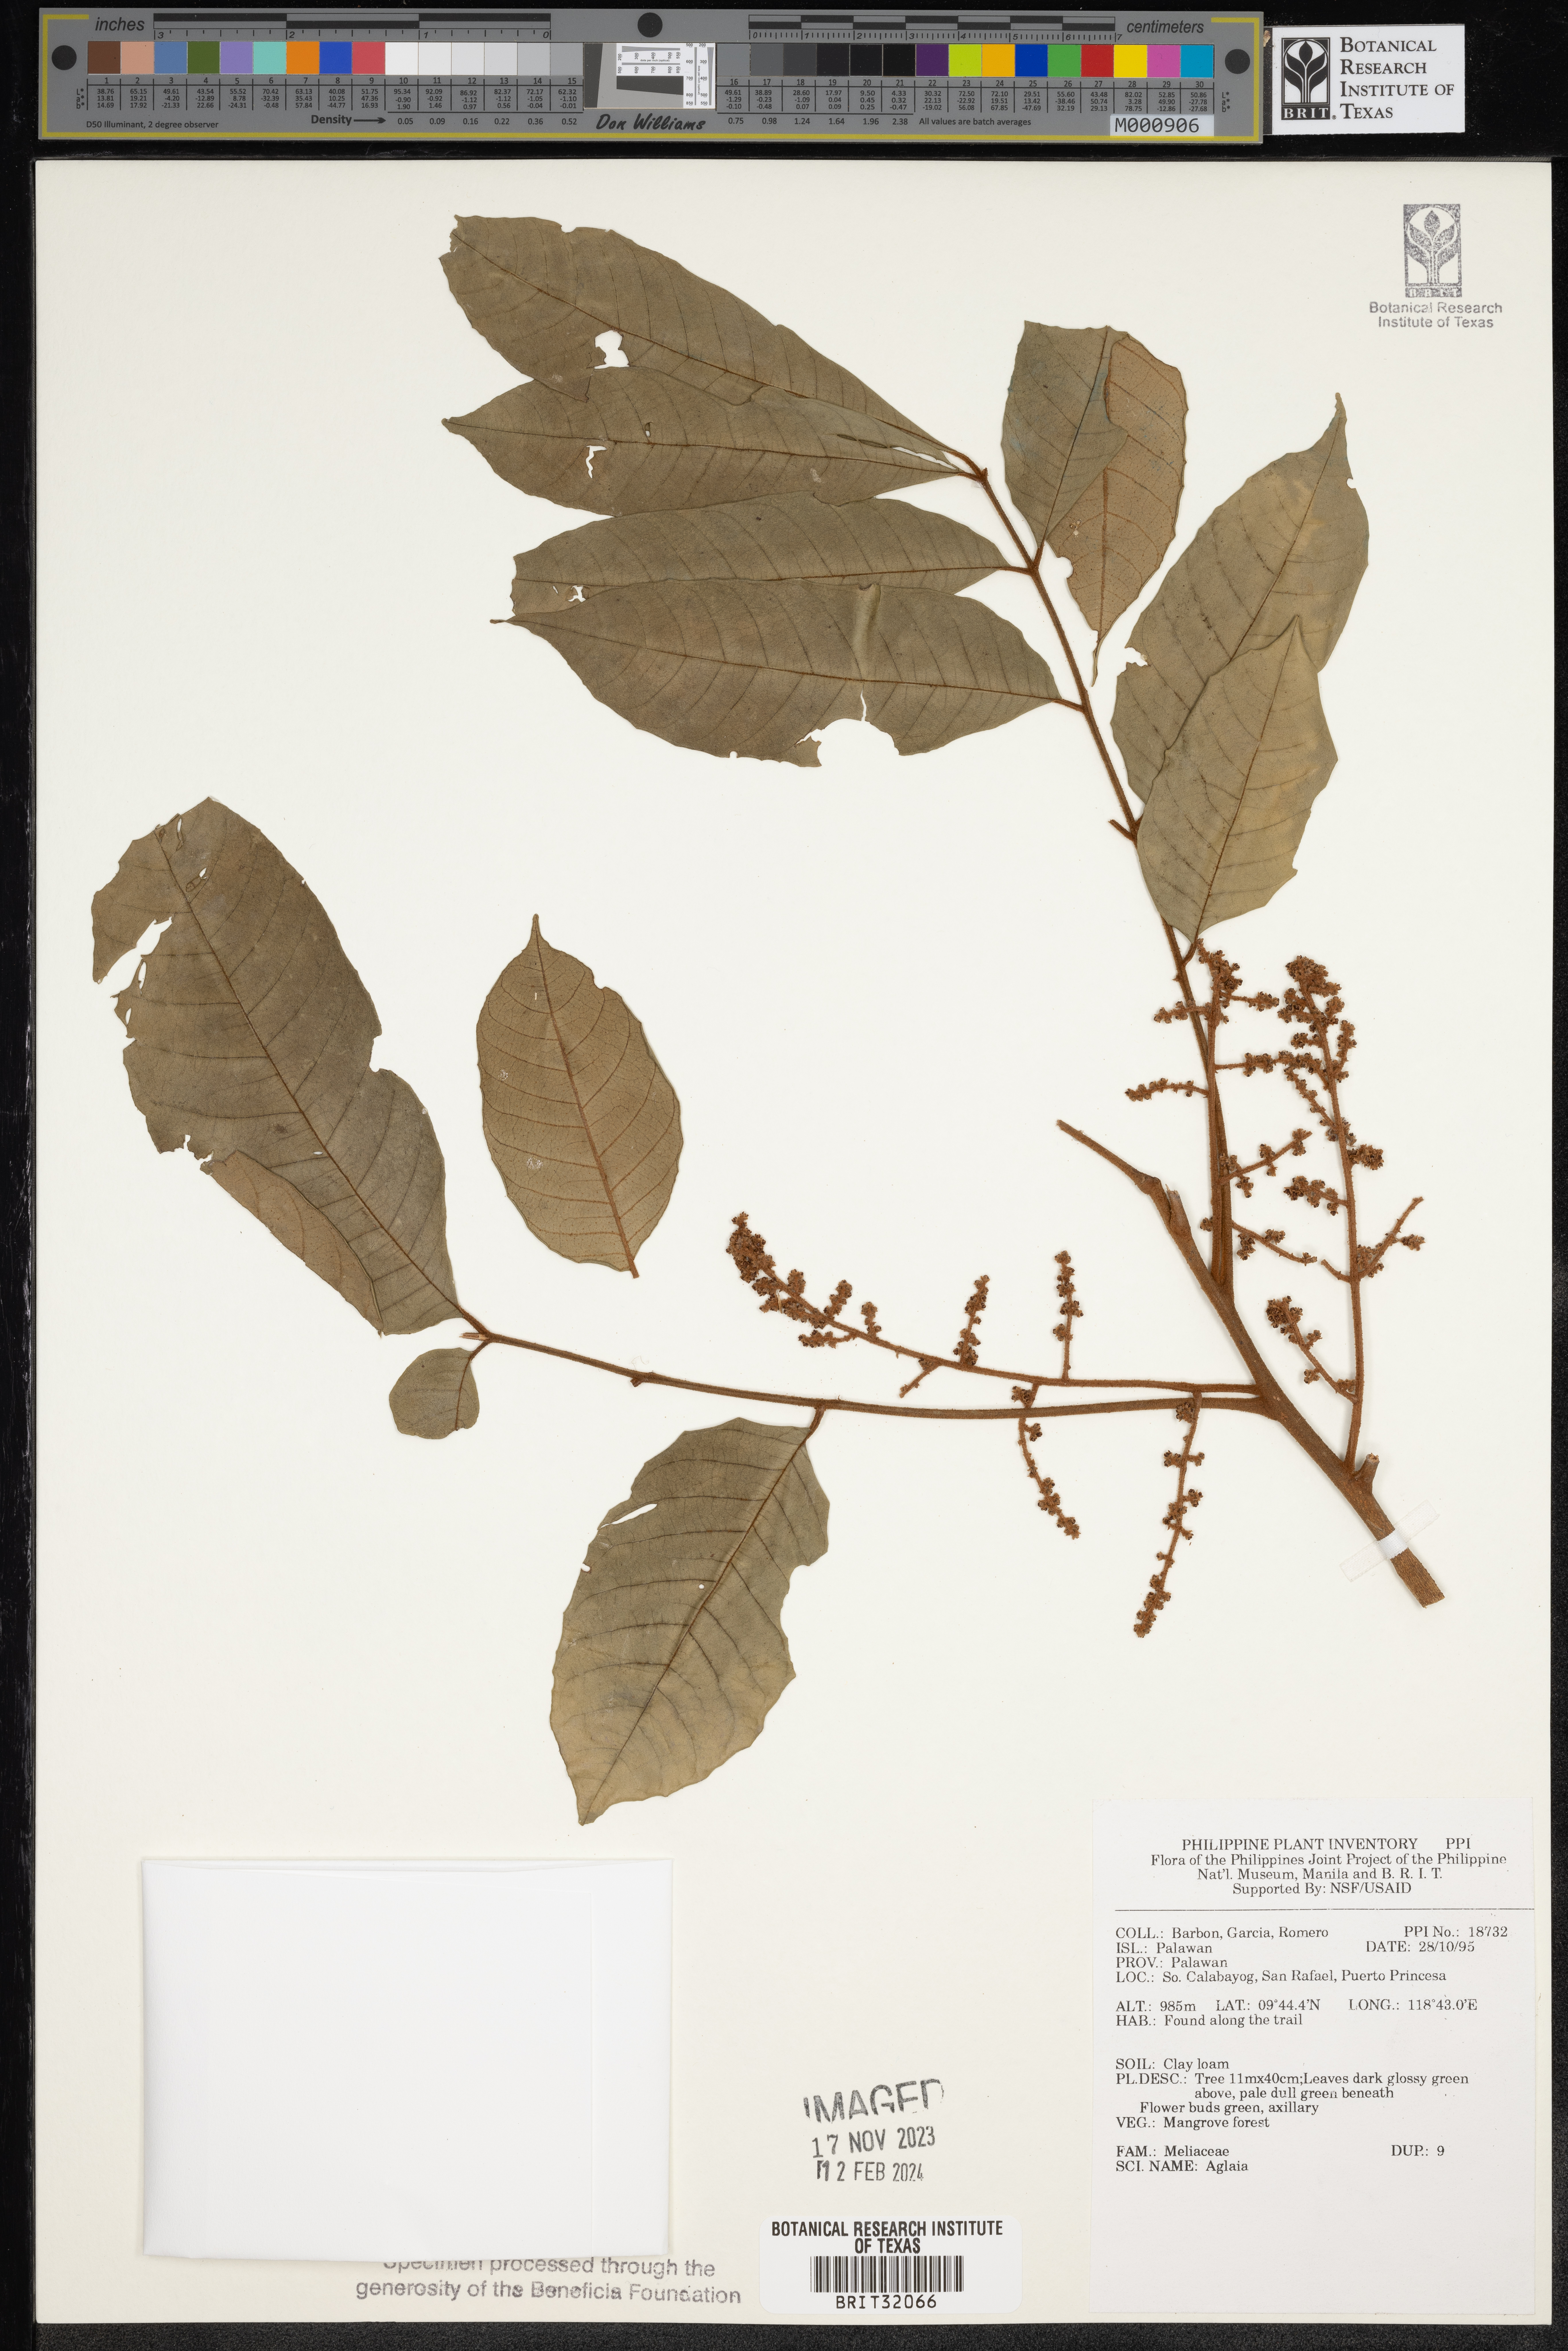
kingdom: Plantae
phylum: Tracheophyta
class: Magnoliopsida
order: Sapindales
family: Meliaceae
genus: Aglaia
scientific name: Aglaia
